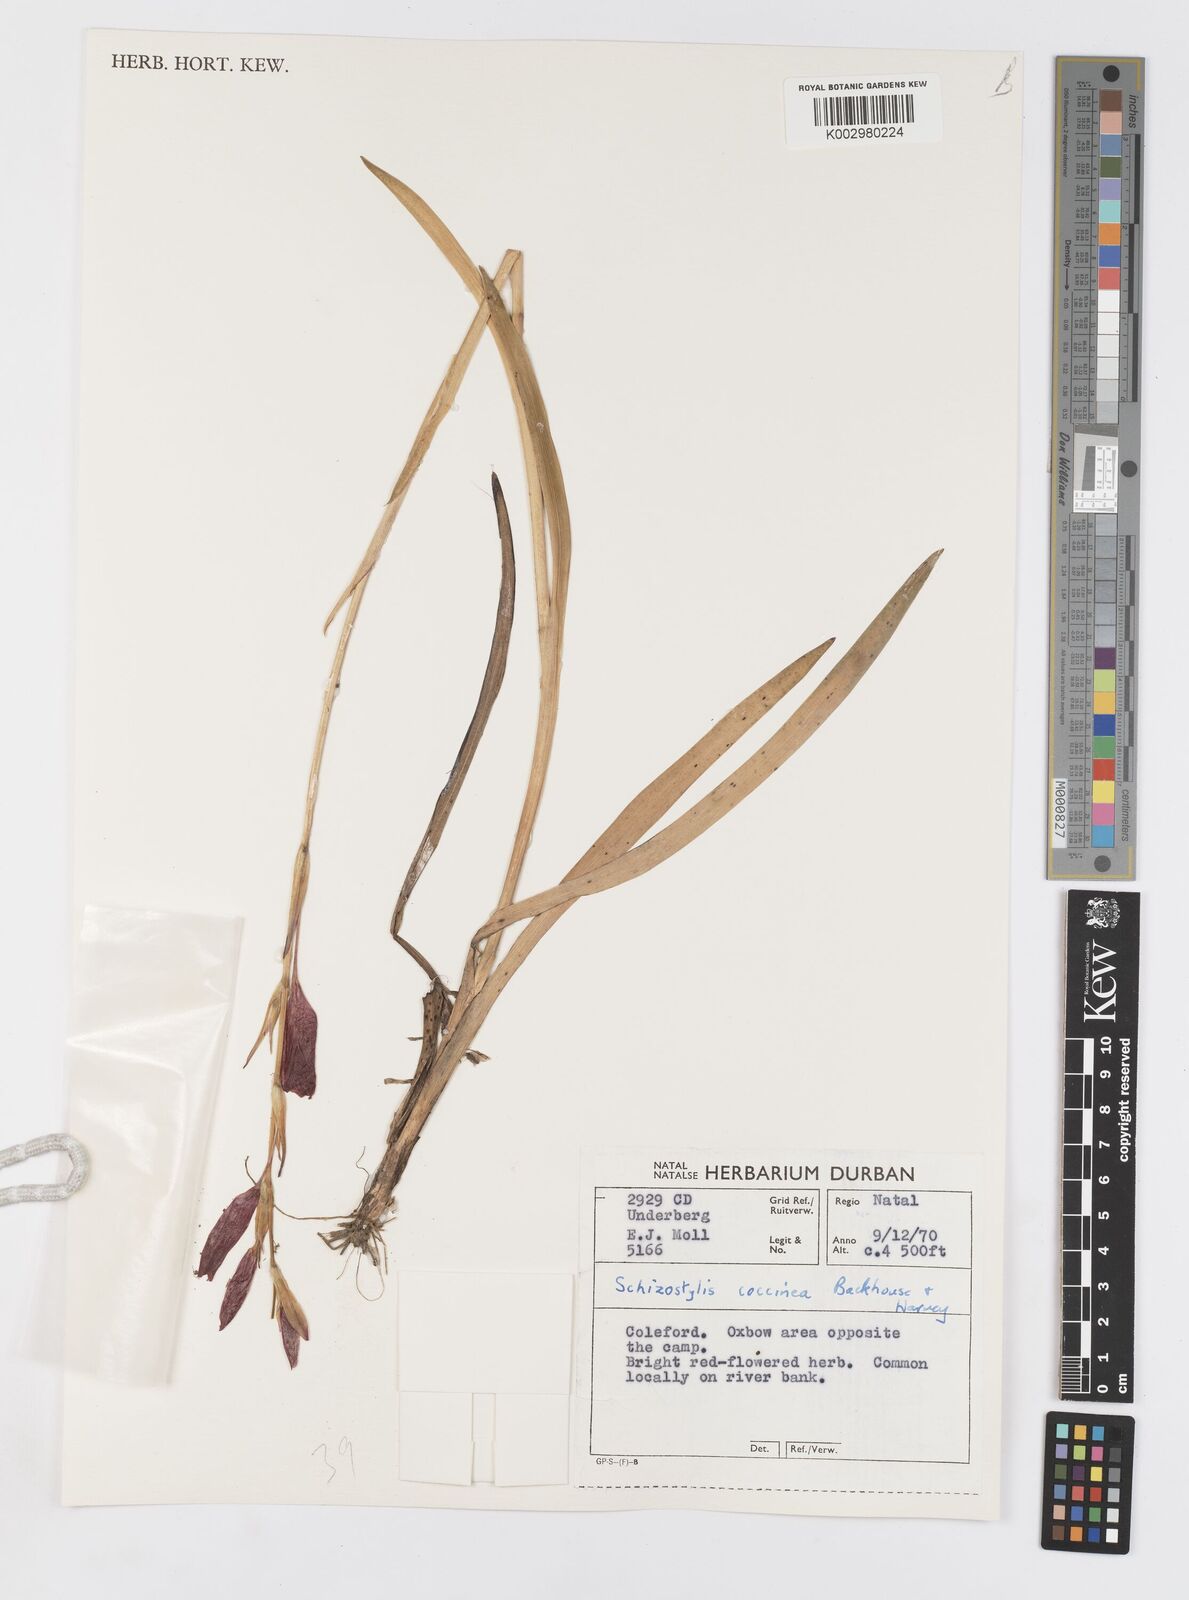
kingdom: Plantae
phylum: Tracheophyta
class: Liliopsida
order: Asparagales
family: Iridaceae
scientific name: Iridaceae
